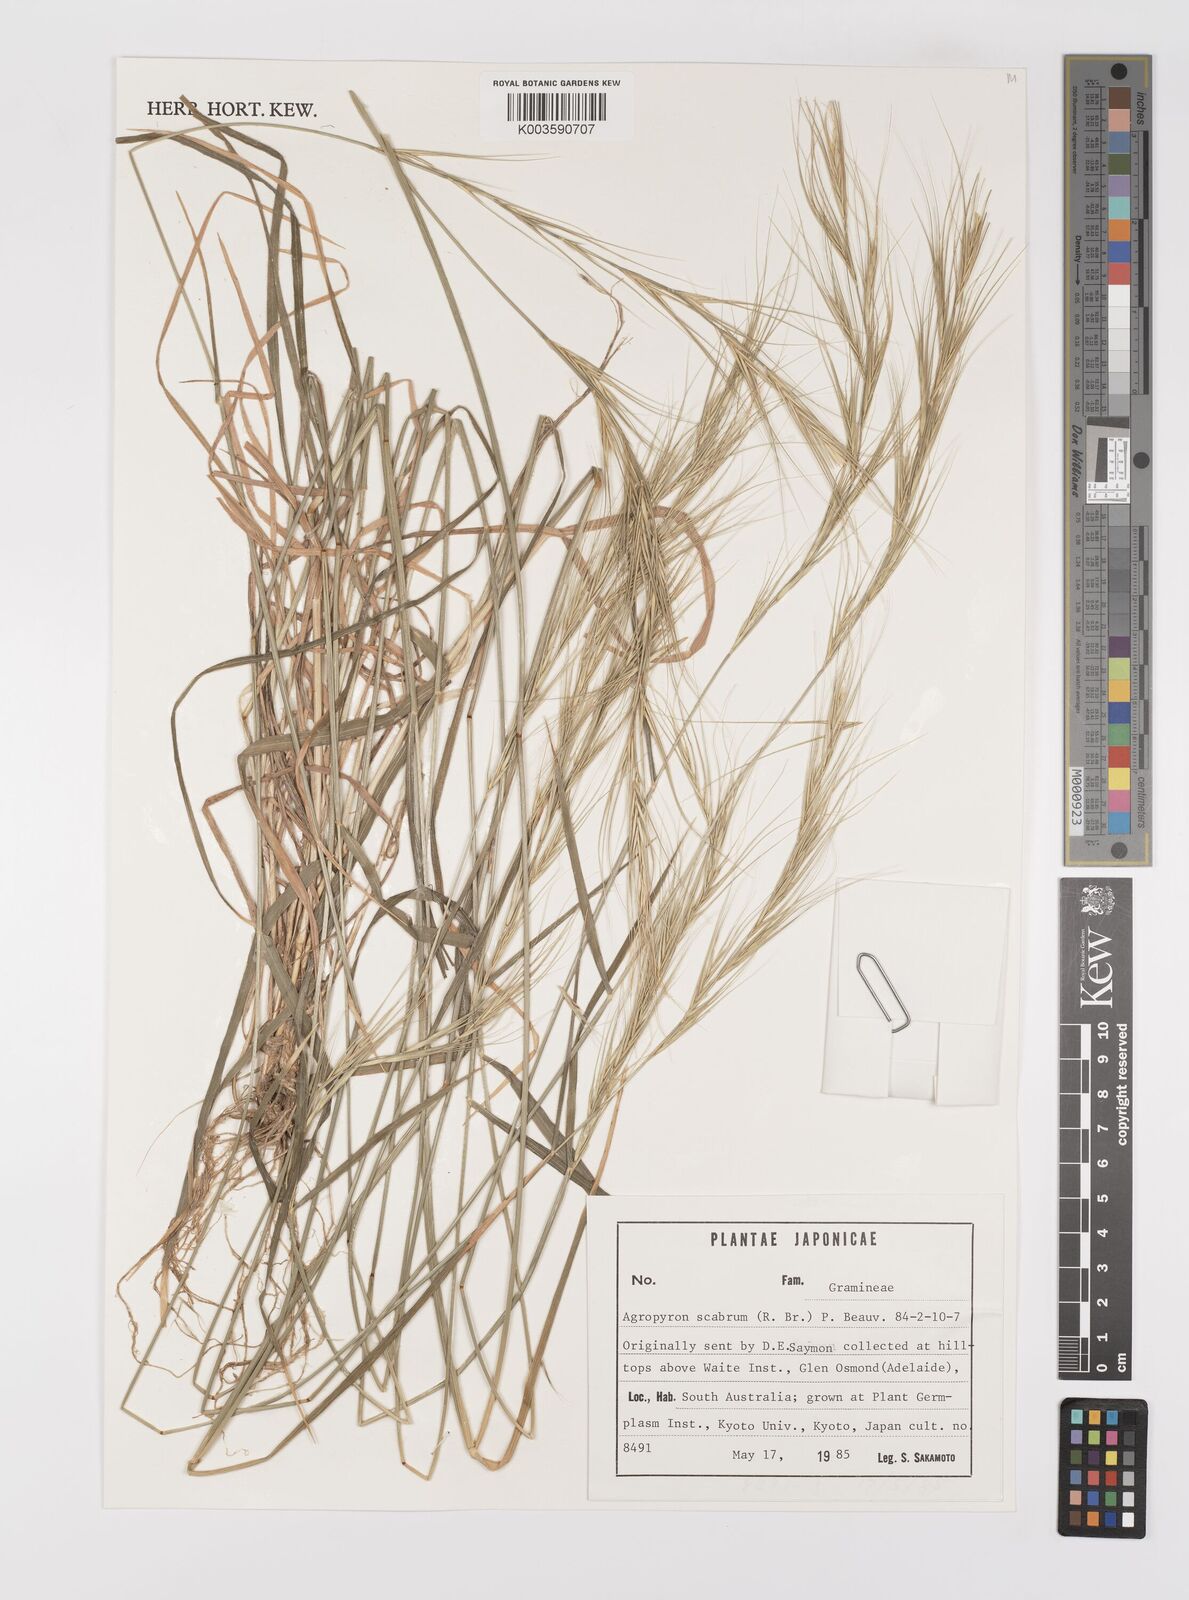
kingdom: Plantae
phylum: Tracheophyta
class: Liliopsida
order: Poales
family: Poaceae
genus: Elymus
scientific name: Elymus
